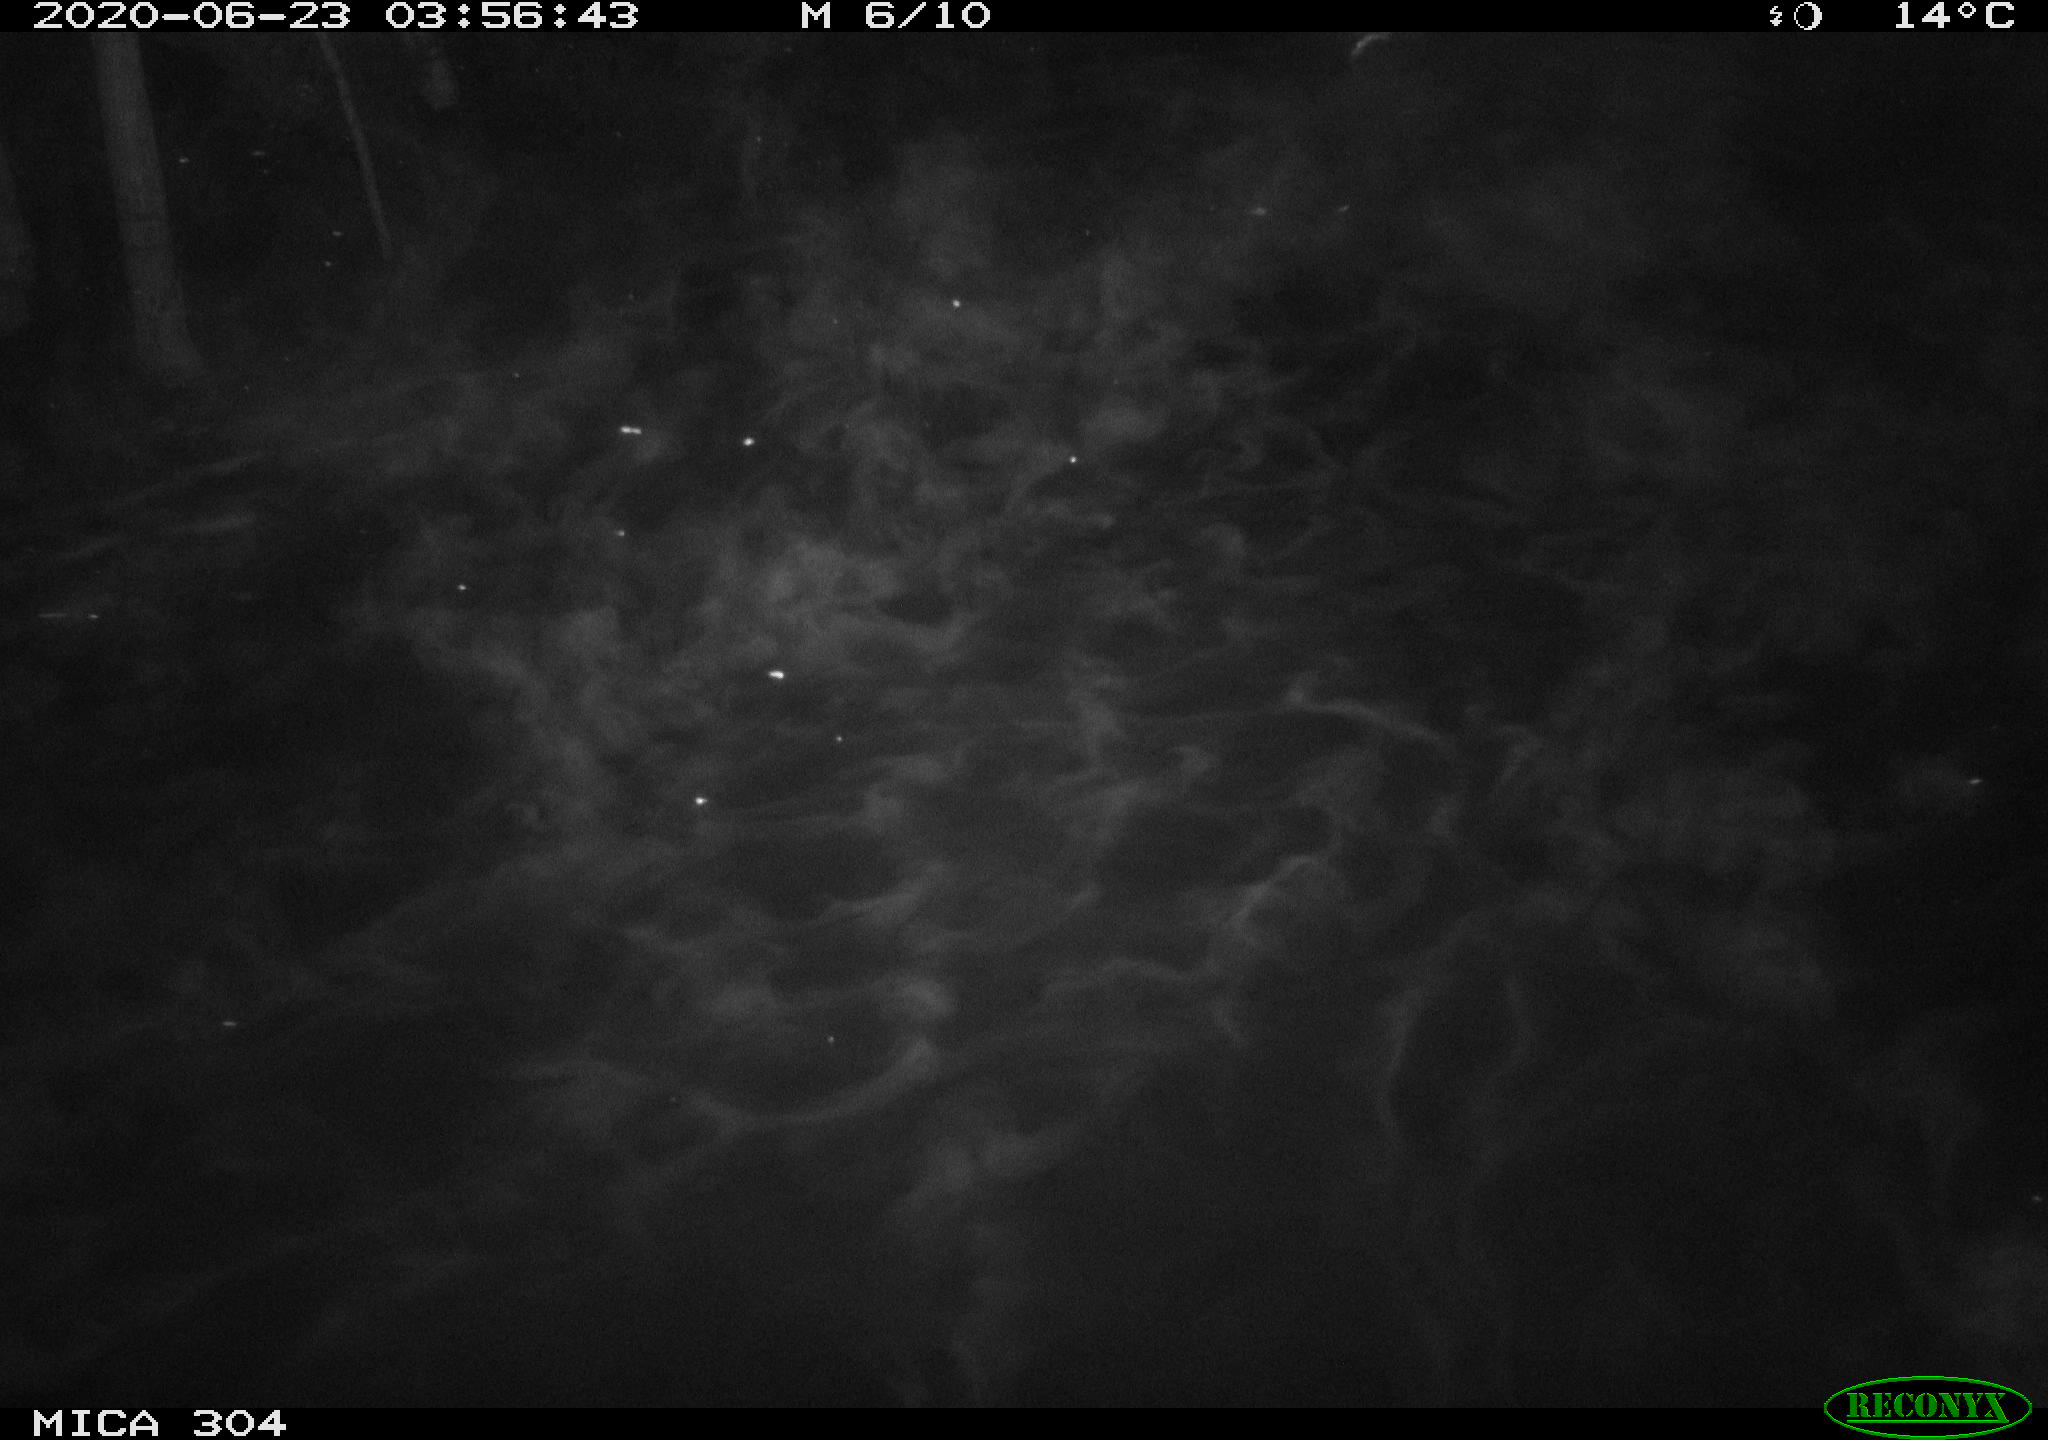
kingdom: Animalia
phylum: Chordata
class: Mammalia
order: Rodentia
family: Cricetidae
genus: Ondatra
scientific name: Ondatra zibethicus
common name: Muskrat
